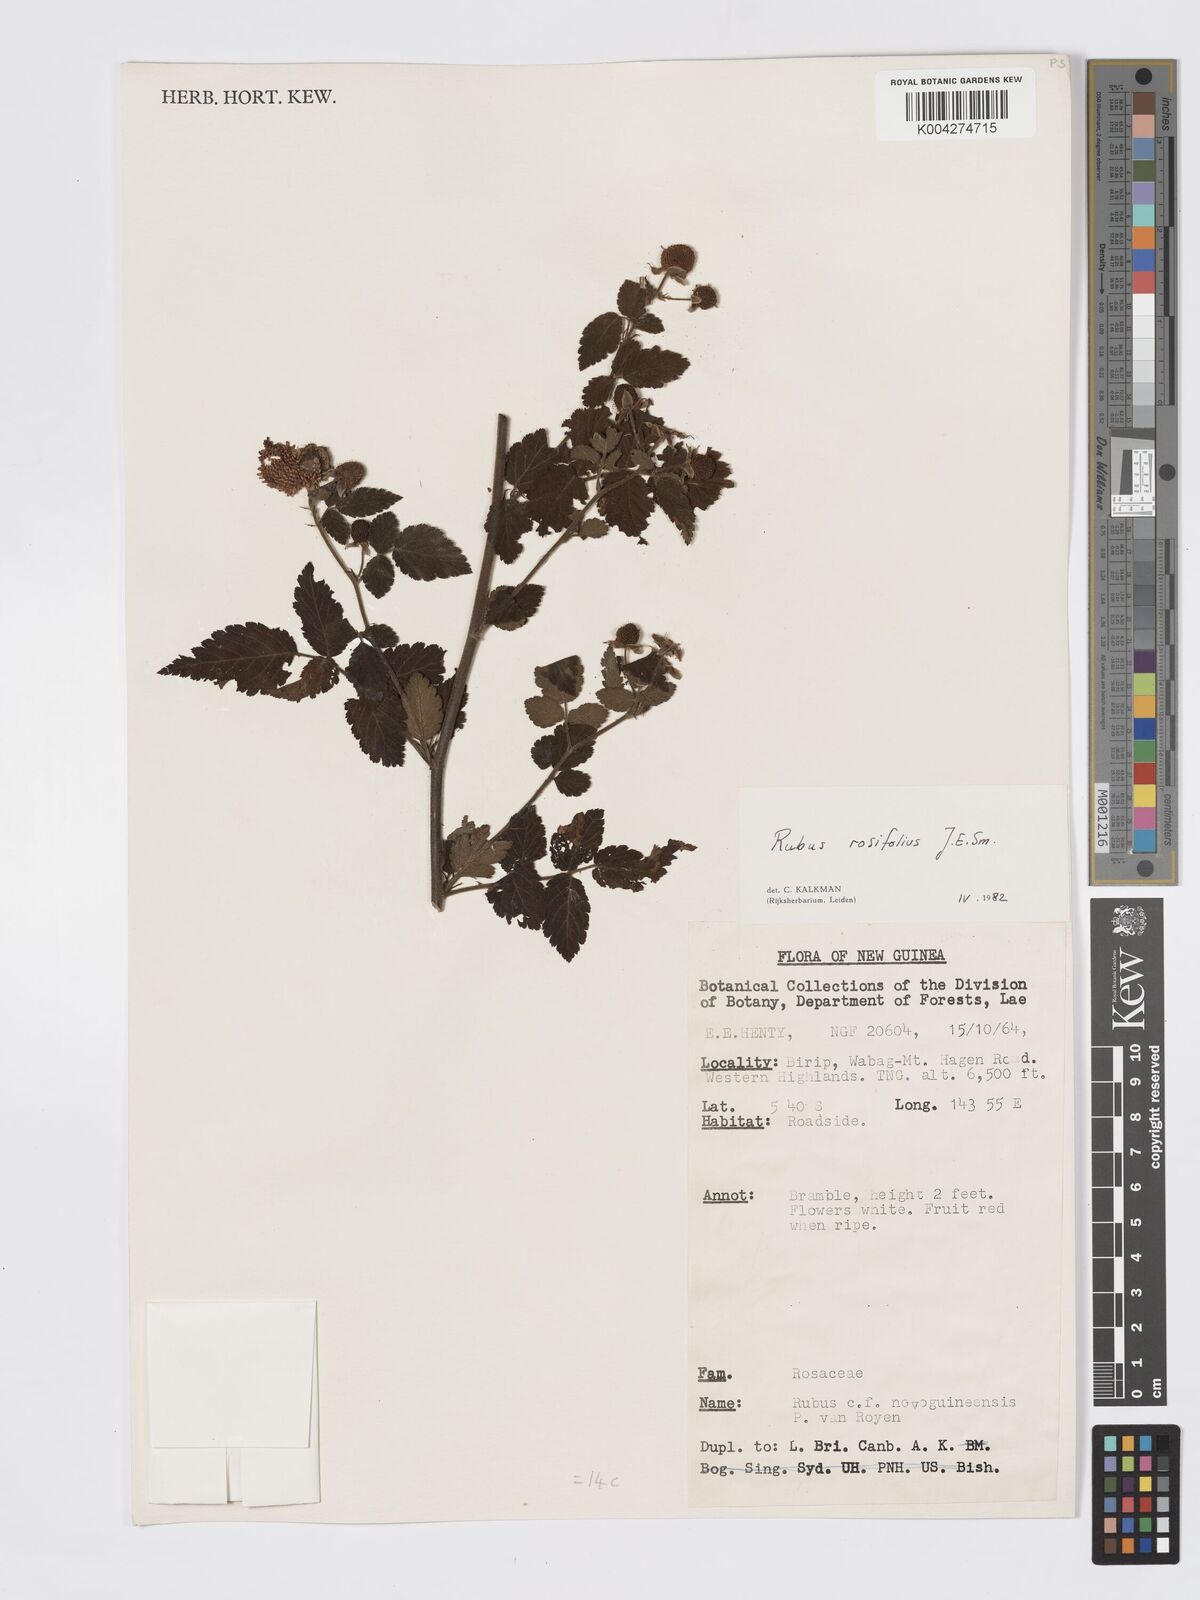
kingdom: Plantae
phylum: Tracheophyta
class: Magnoliopsida
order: Rosales
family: Rosaceae
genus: Rubus
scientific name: Rubus
